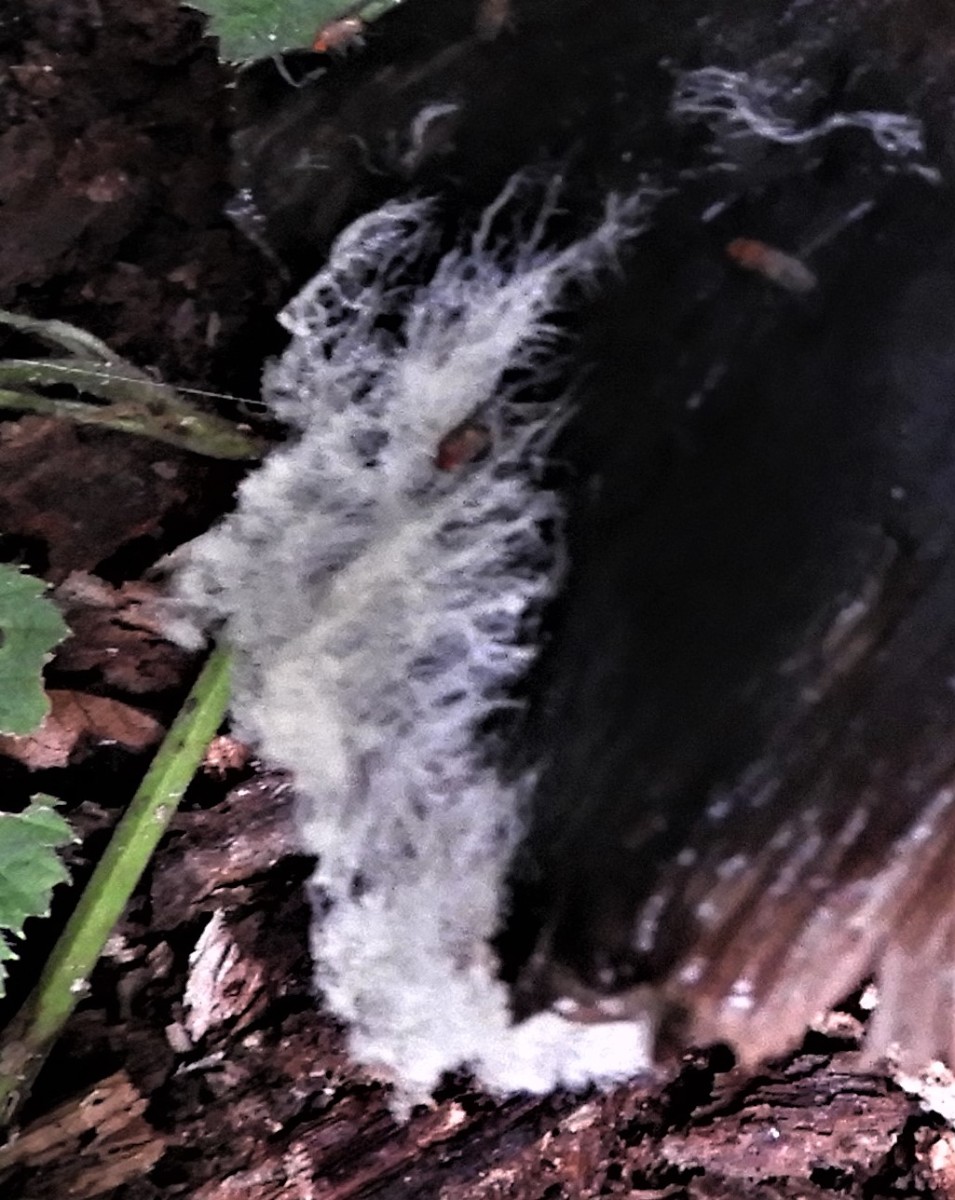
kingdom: Fungi
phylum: Mucoromycota
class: Mucoromycetes
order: Mucorales
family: Rhizopodaceae
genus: Syzygites
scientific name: Syzygites megalocarpus
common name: nissenål
